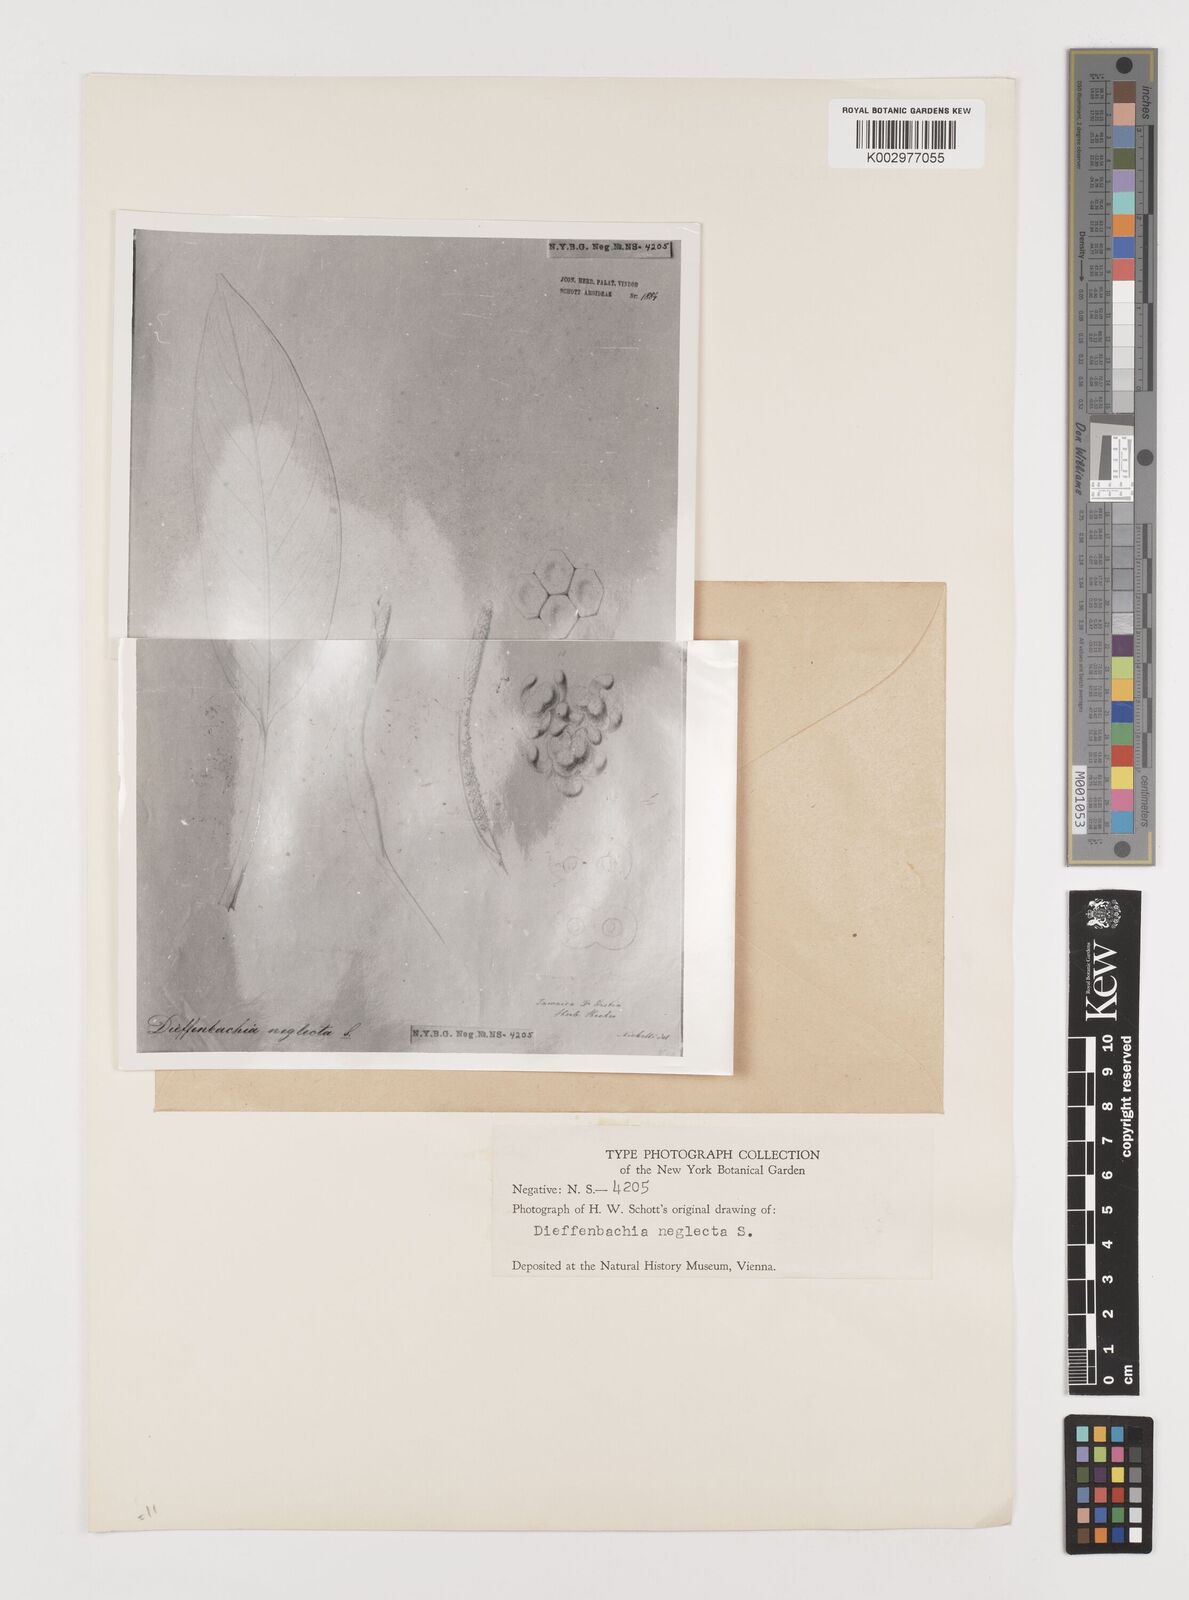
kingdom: Plantae
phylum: Tracheophyta
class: Liliopsida
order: Alismatales
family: Araceae
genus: Dieffenbachia
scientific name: Dieffenbachia seguine
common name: Dumbcane
